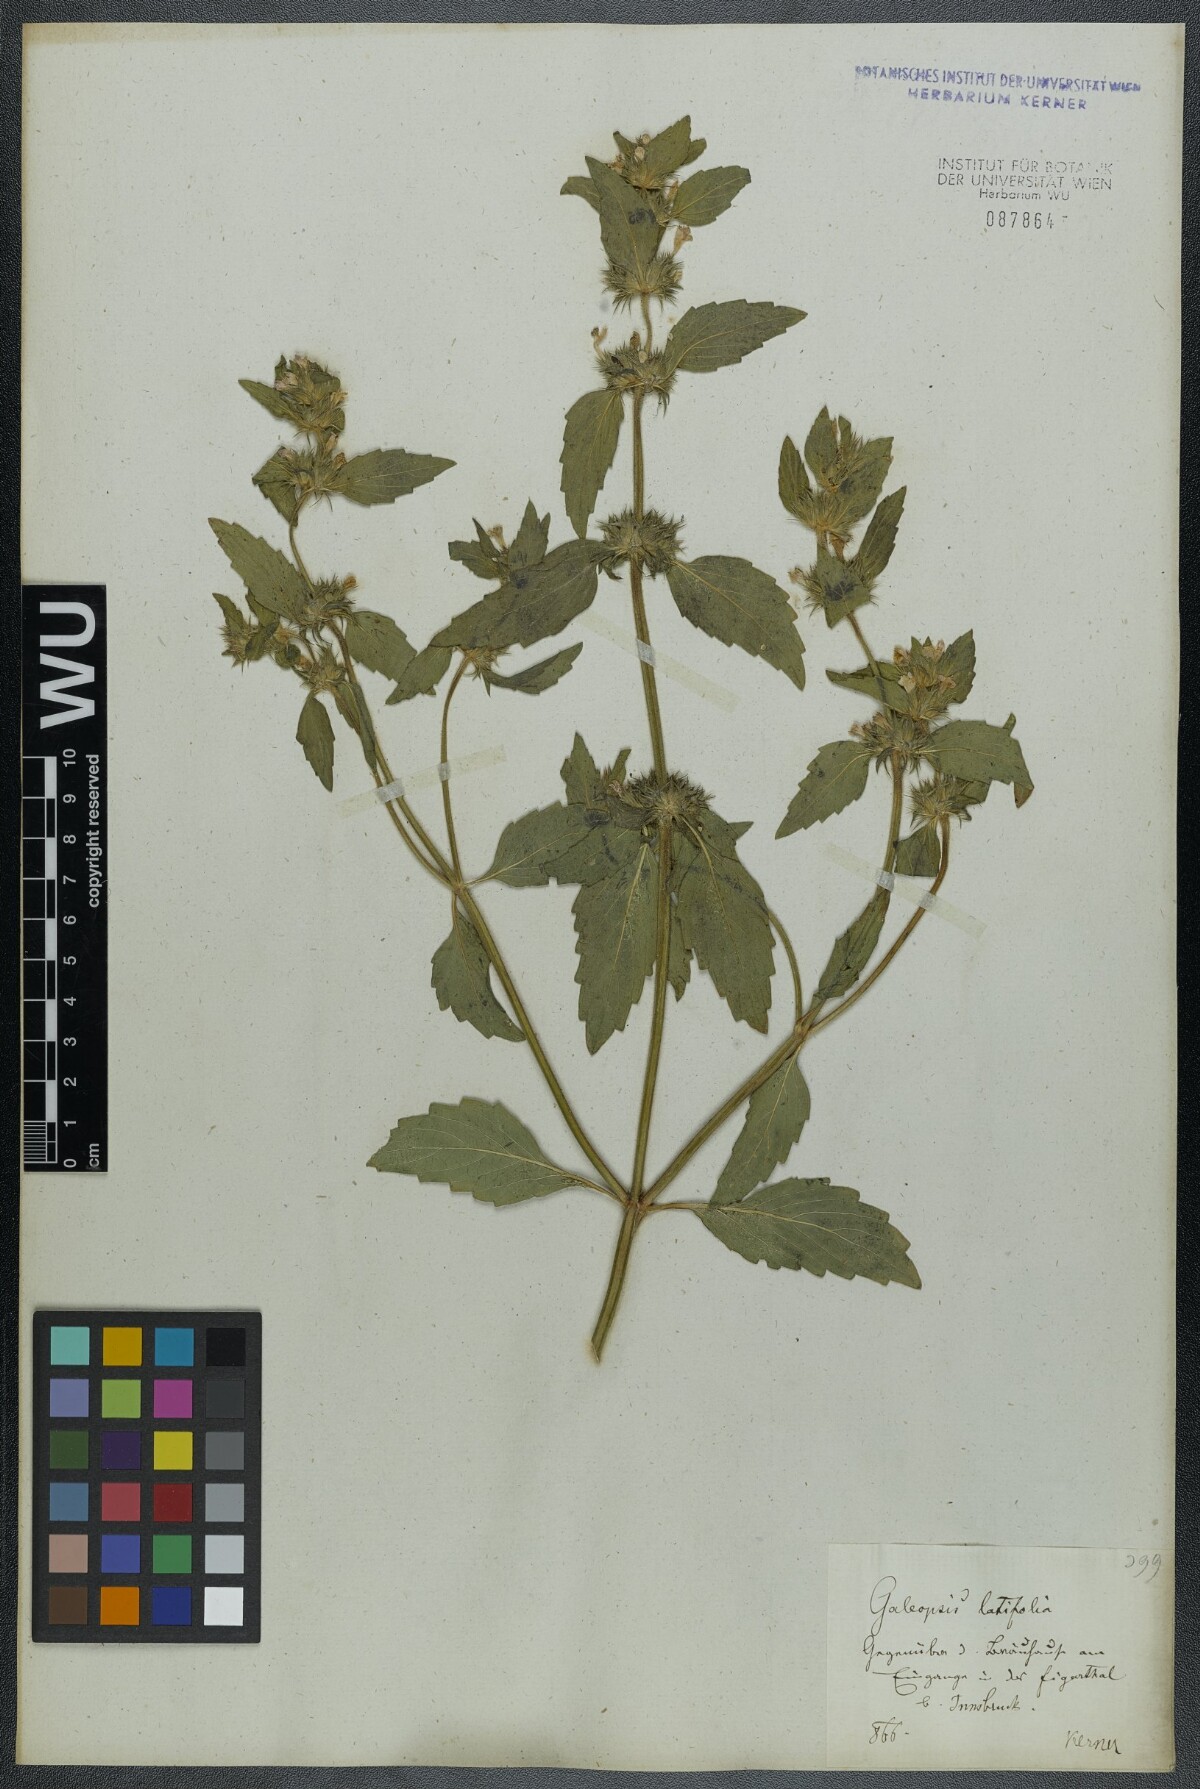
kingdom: Plantae
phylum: Tracheophyta
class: Magnoliopsida
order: Lamiales
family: Lamiaceae
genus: Galeopsis
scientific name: Galeopsis ladanum
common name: Broad-leaved hemp-nettle
